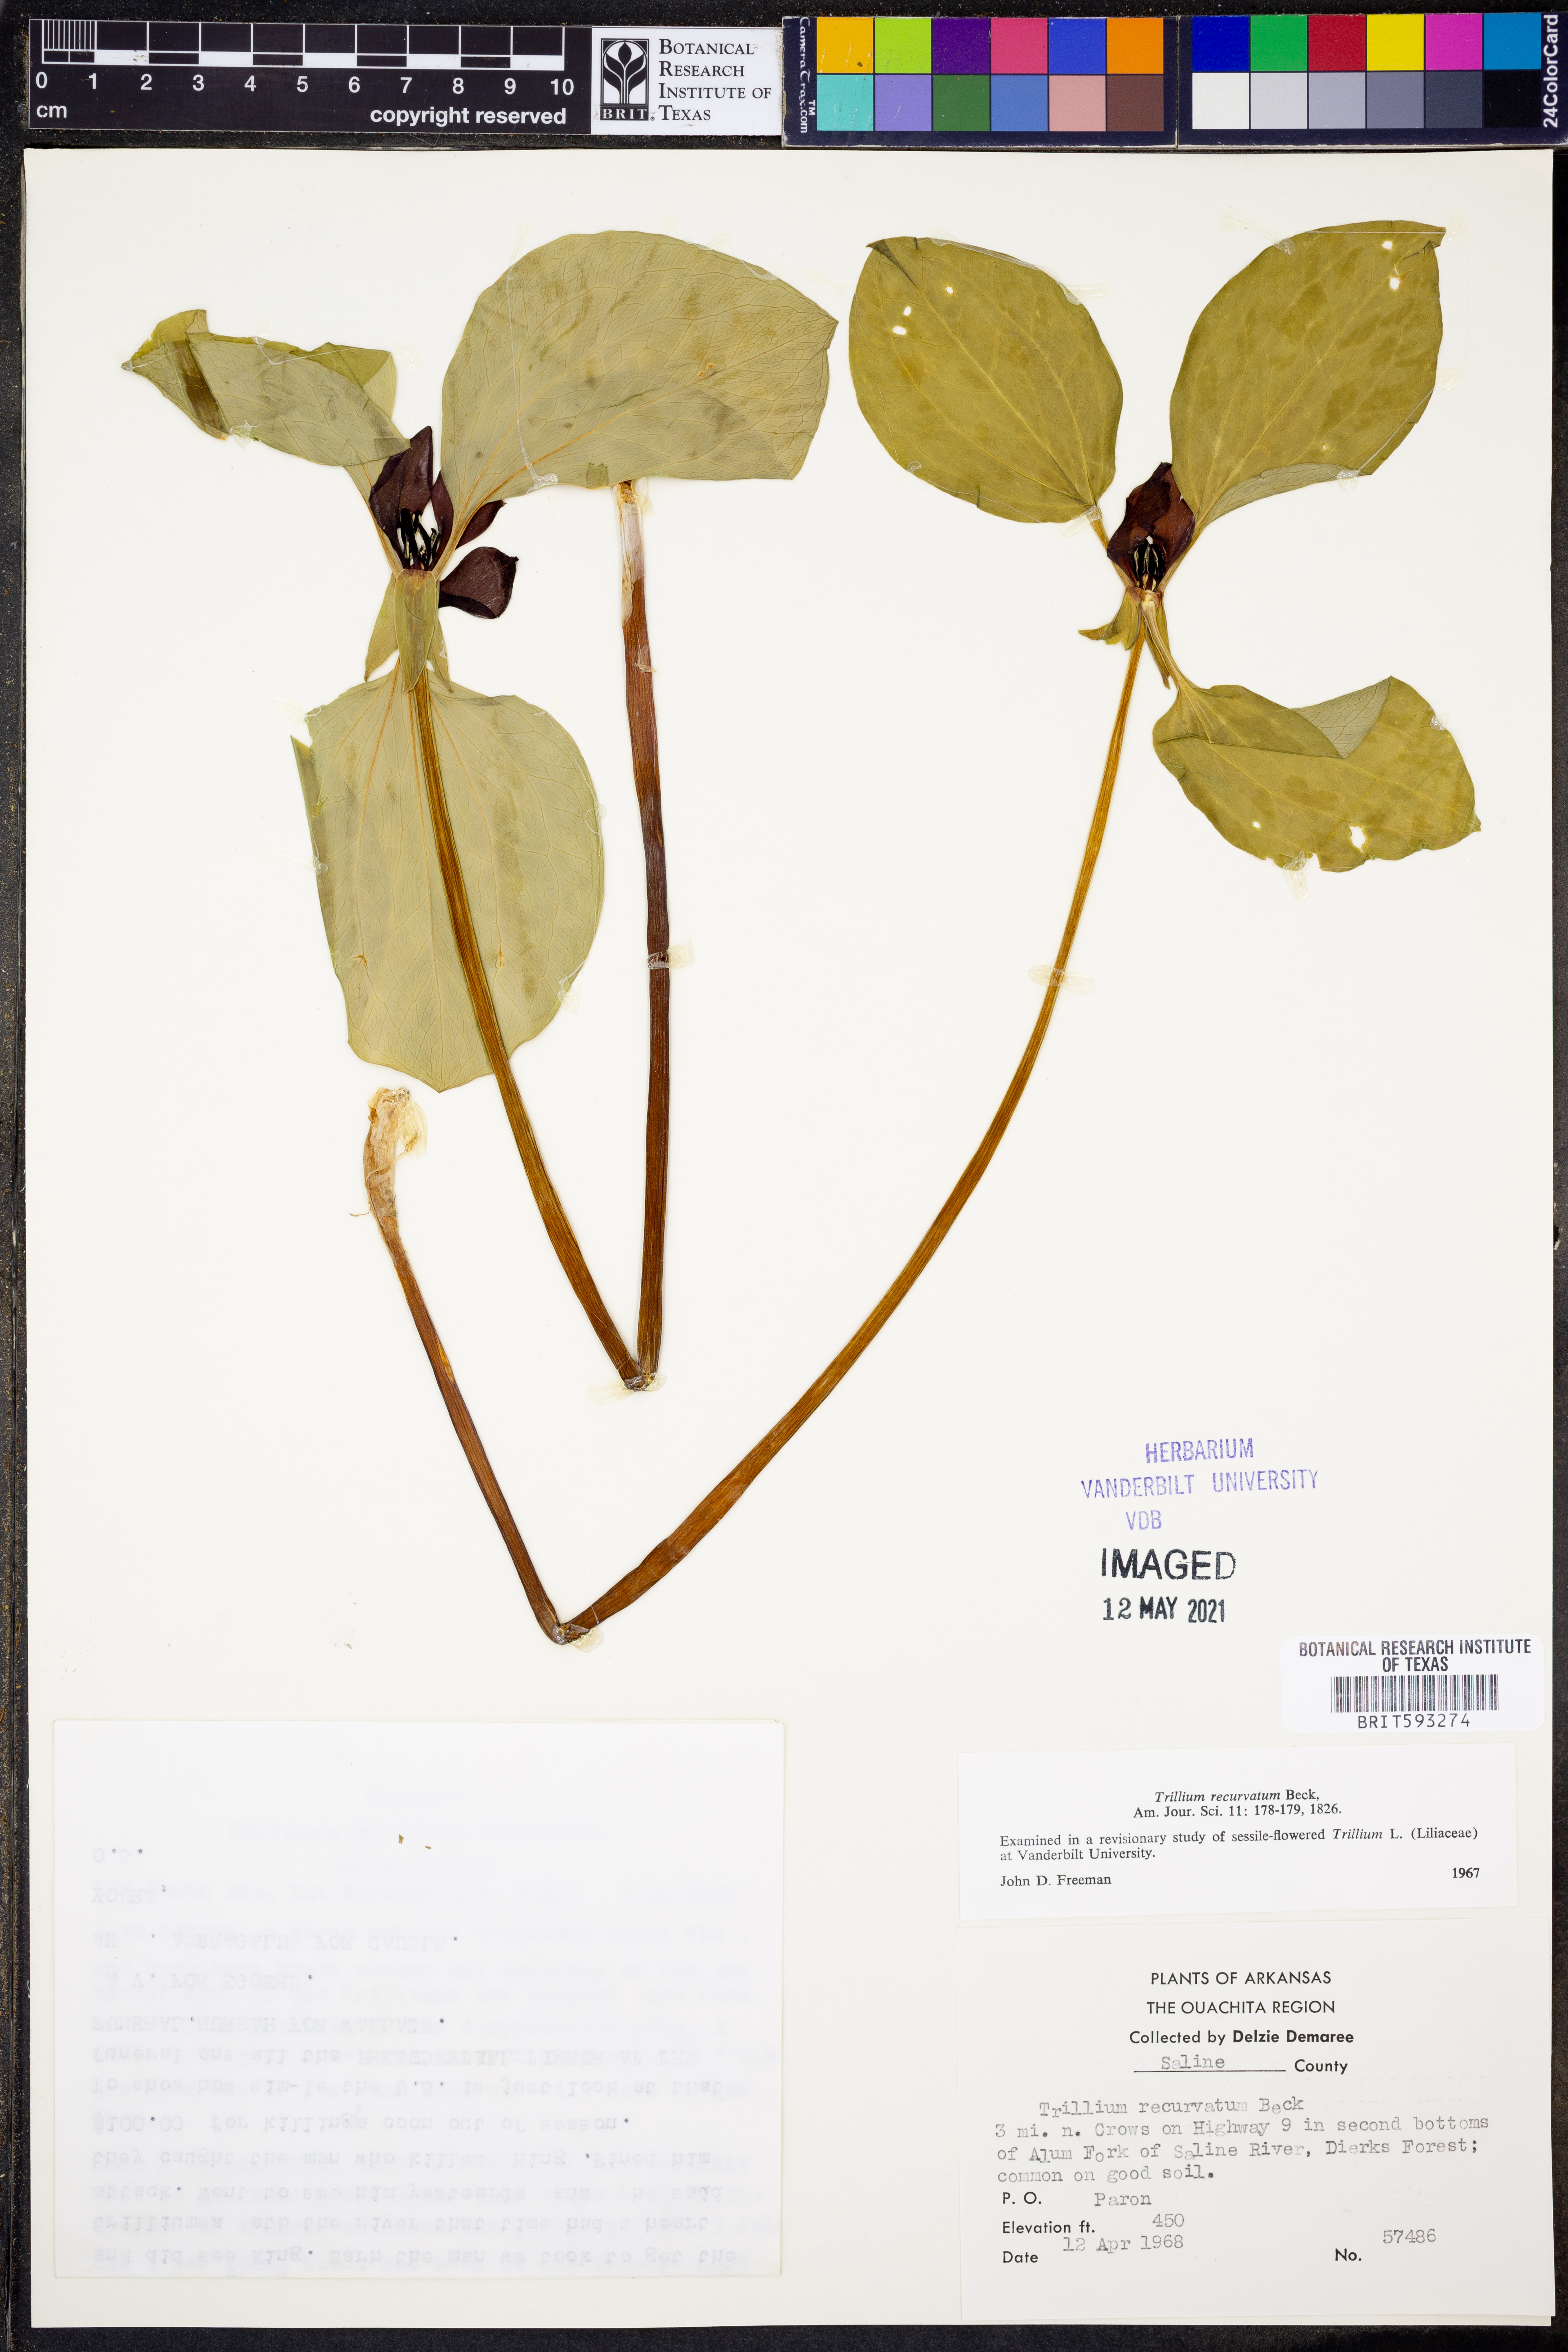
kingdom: Plantae
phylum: Tracheophyta
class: Liliopsida
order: Liliales
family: Melanthiaceae
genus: Trillium
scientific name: Trillium recurvatum
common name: Bloody butcher
